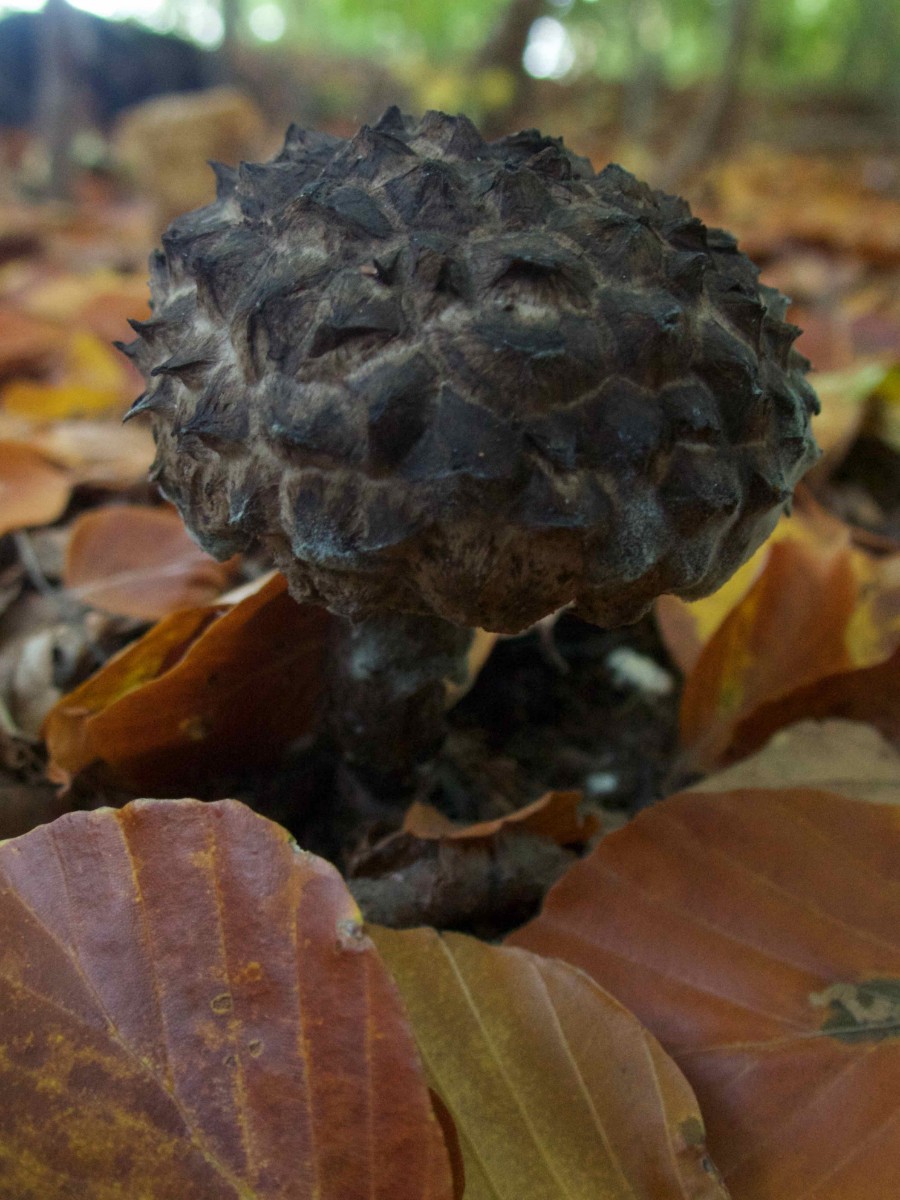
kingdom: Fungi
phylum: Basidiomycota
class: Agaricomycetes
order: Boletales
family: Boletaceae
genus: Strobilomyces
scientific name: Strobilomyces strobilaceus
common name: koglerørhat
